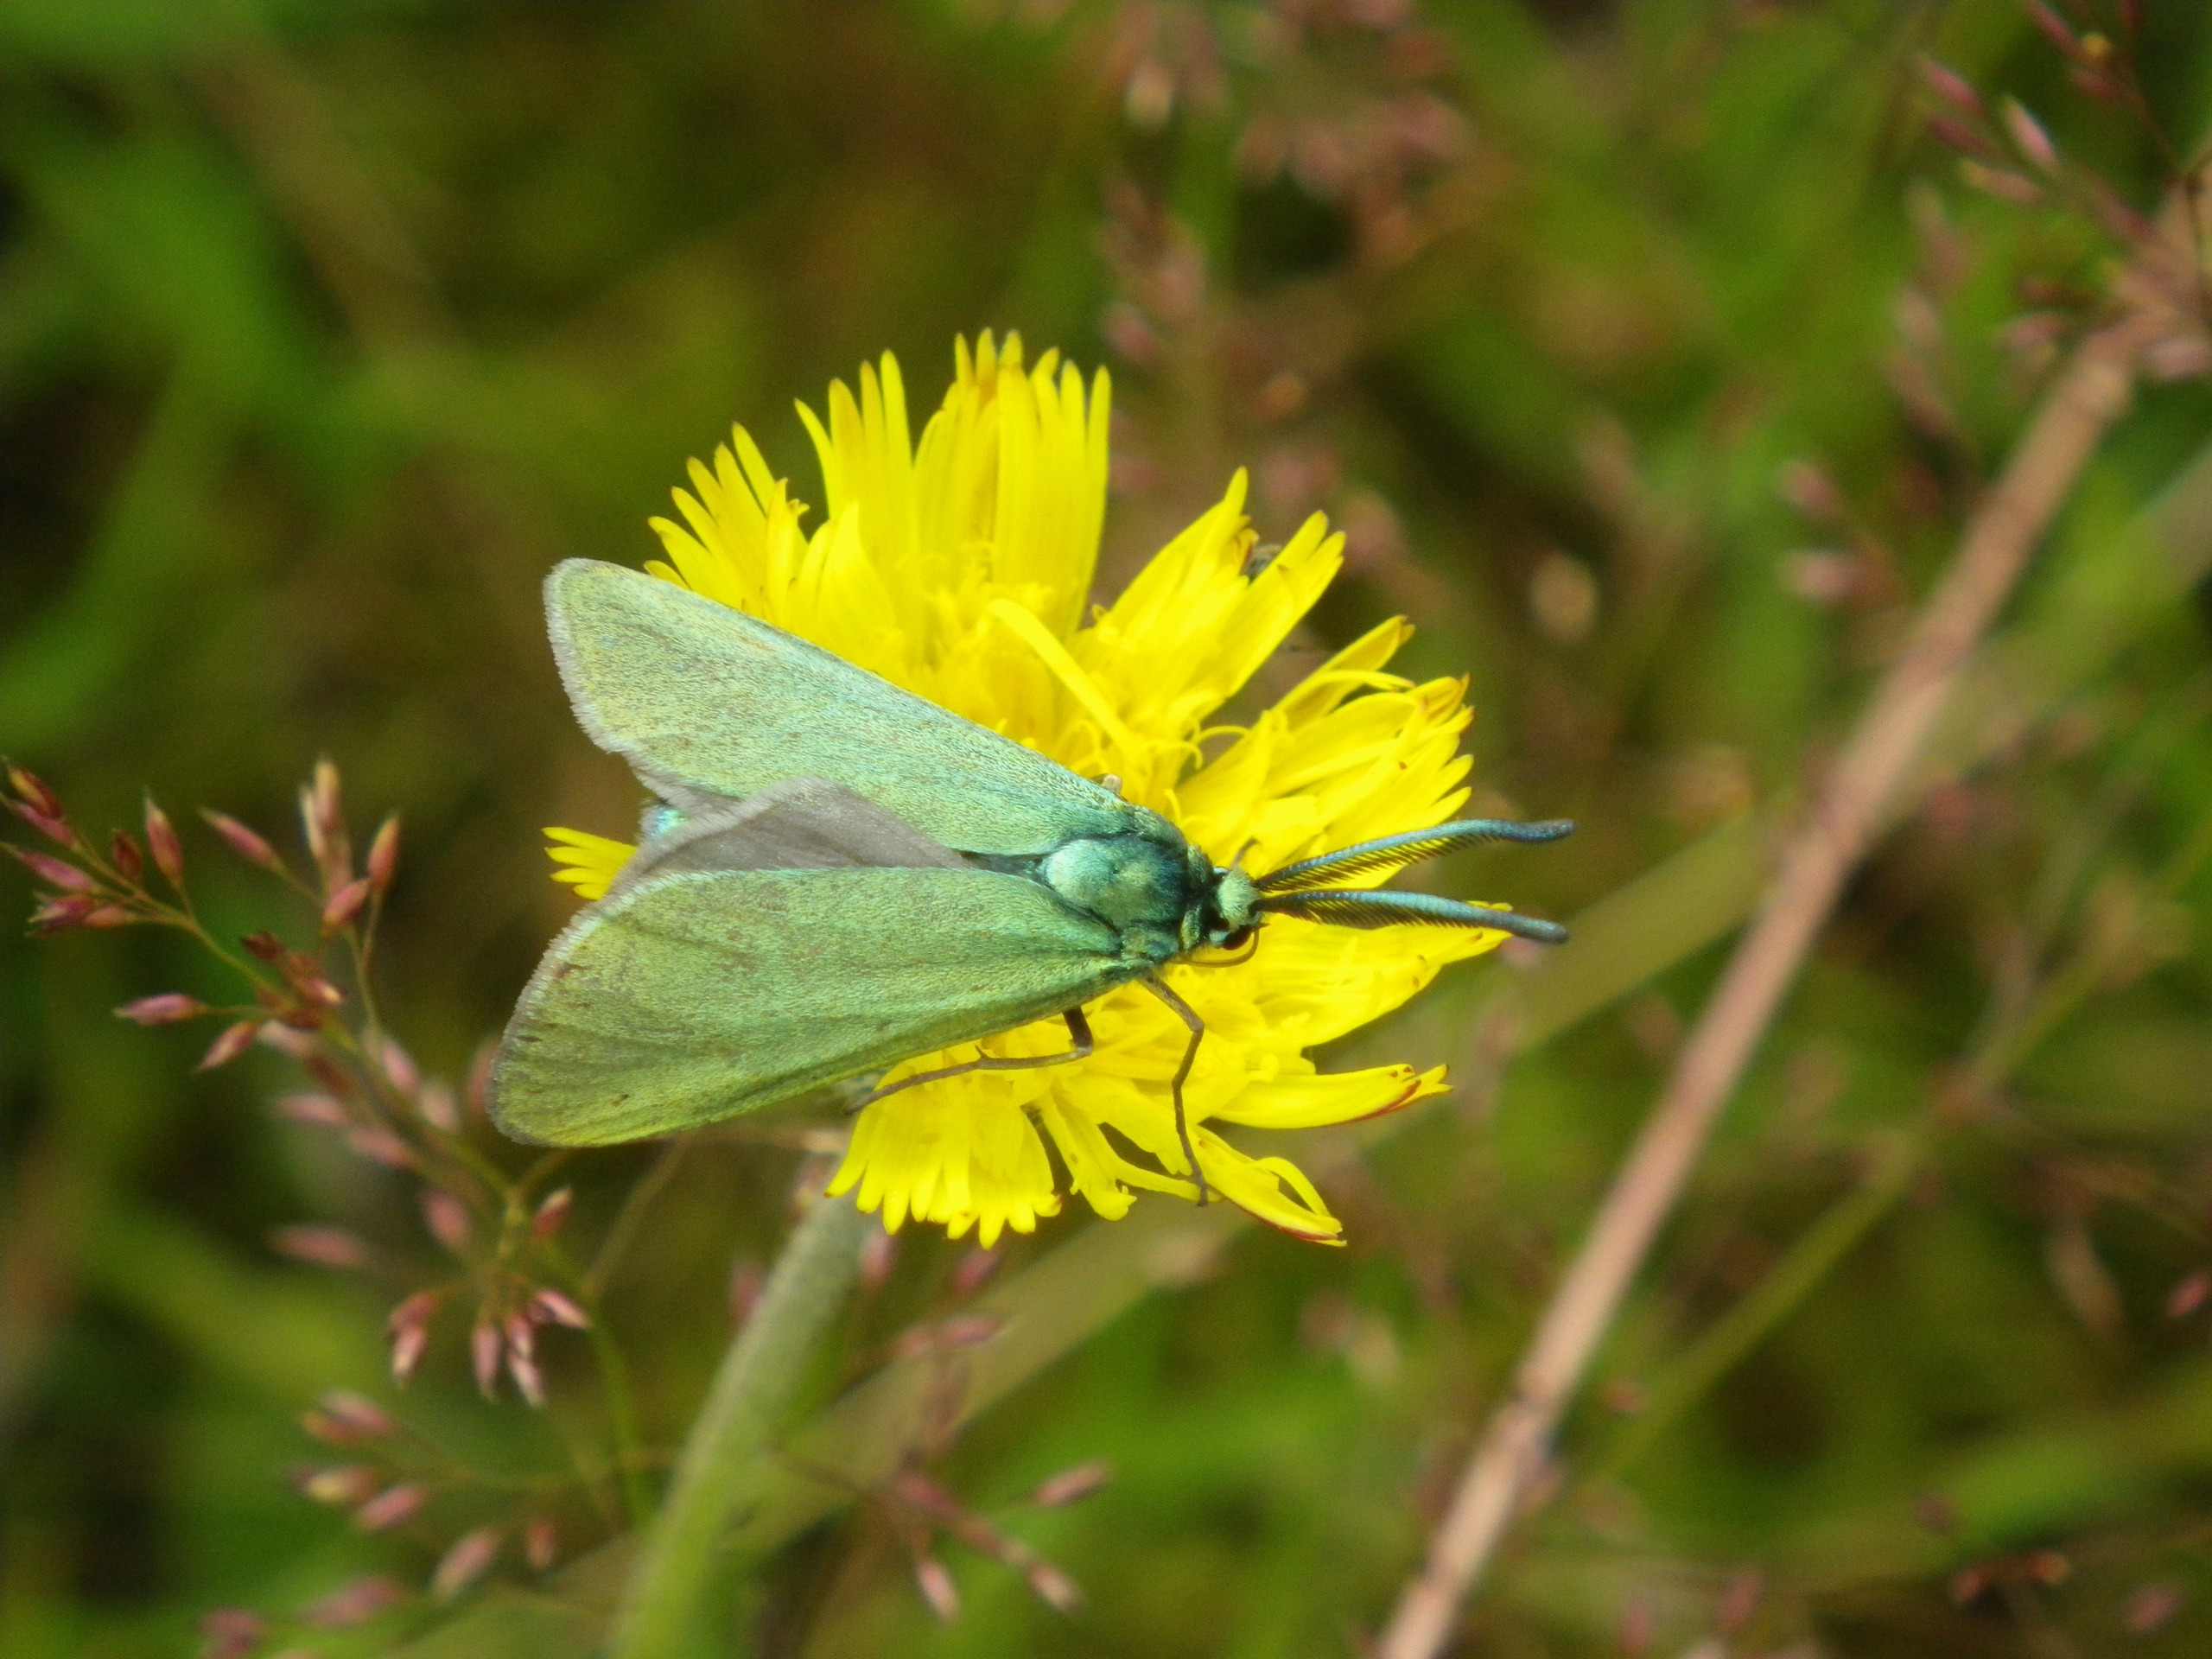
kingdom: Animalia
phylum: Arthropoda
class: Insecta
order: Lepidoptera
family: Zygaenidae
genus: Adscita
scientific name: Adscita statices
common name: Metalvinge
